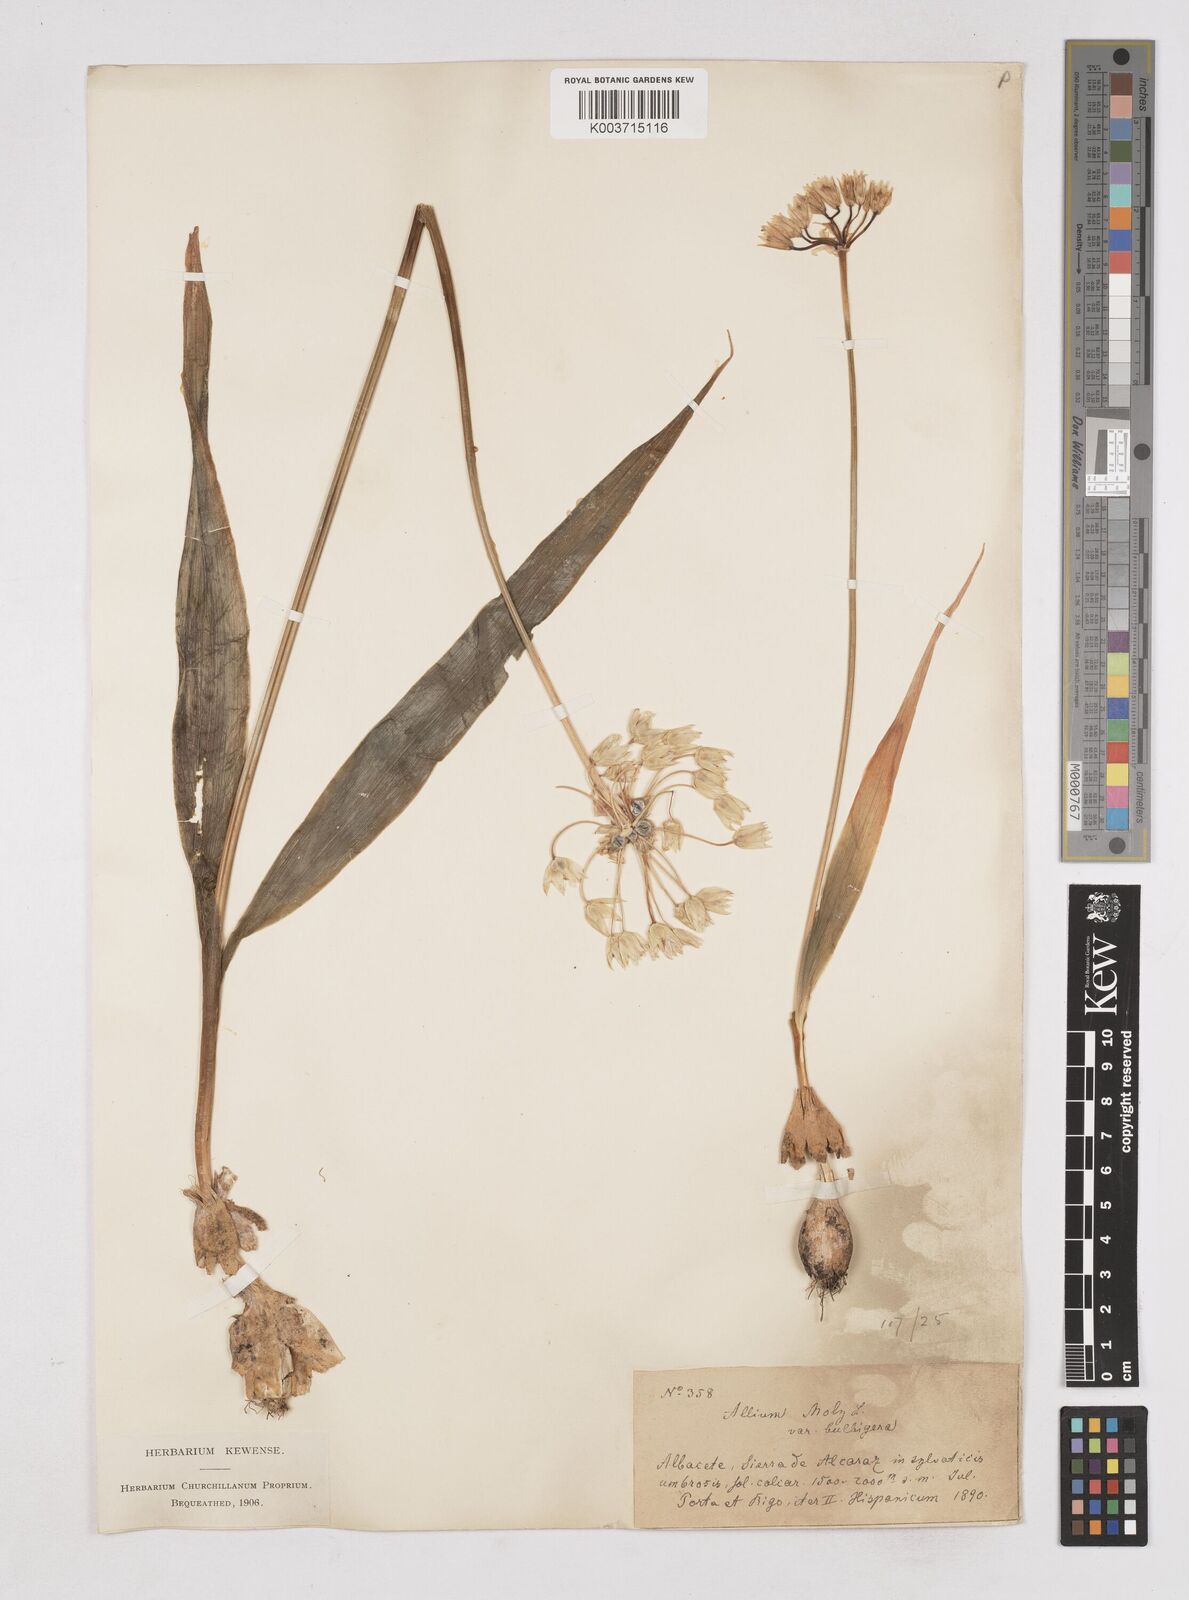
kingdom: Plantae
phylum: Tracheophyta
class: Liliopsida
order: Asparagales
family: Amaryllidaceae
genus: Allium
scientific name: Allium moly
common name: Yellow garlic
